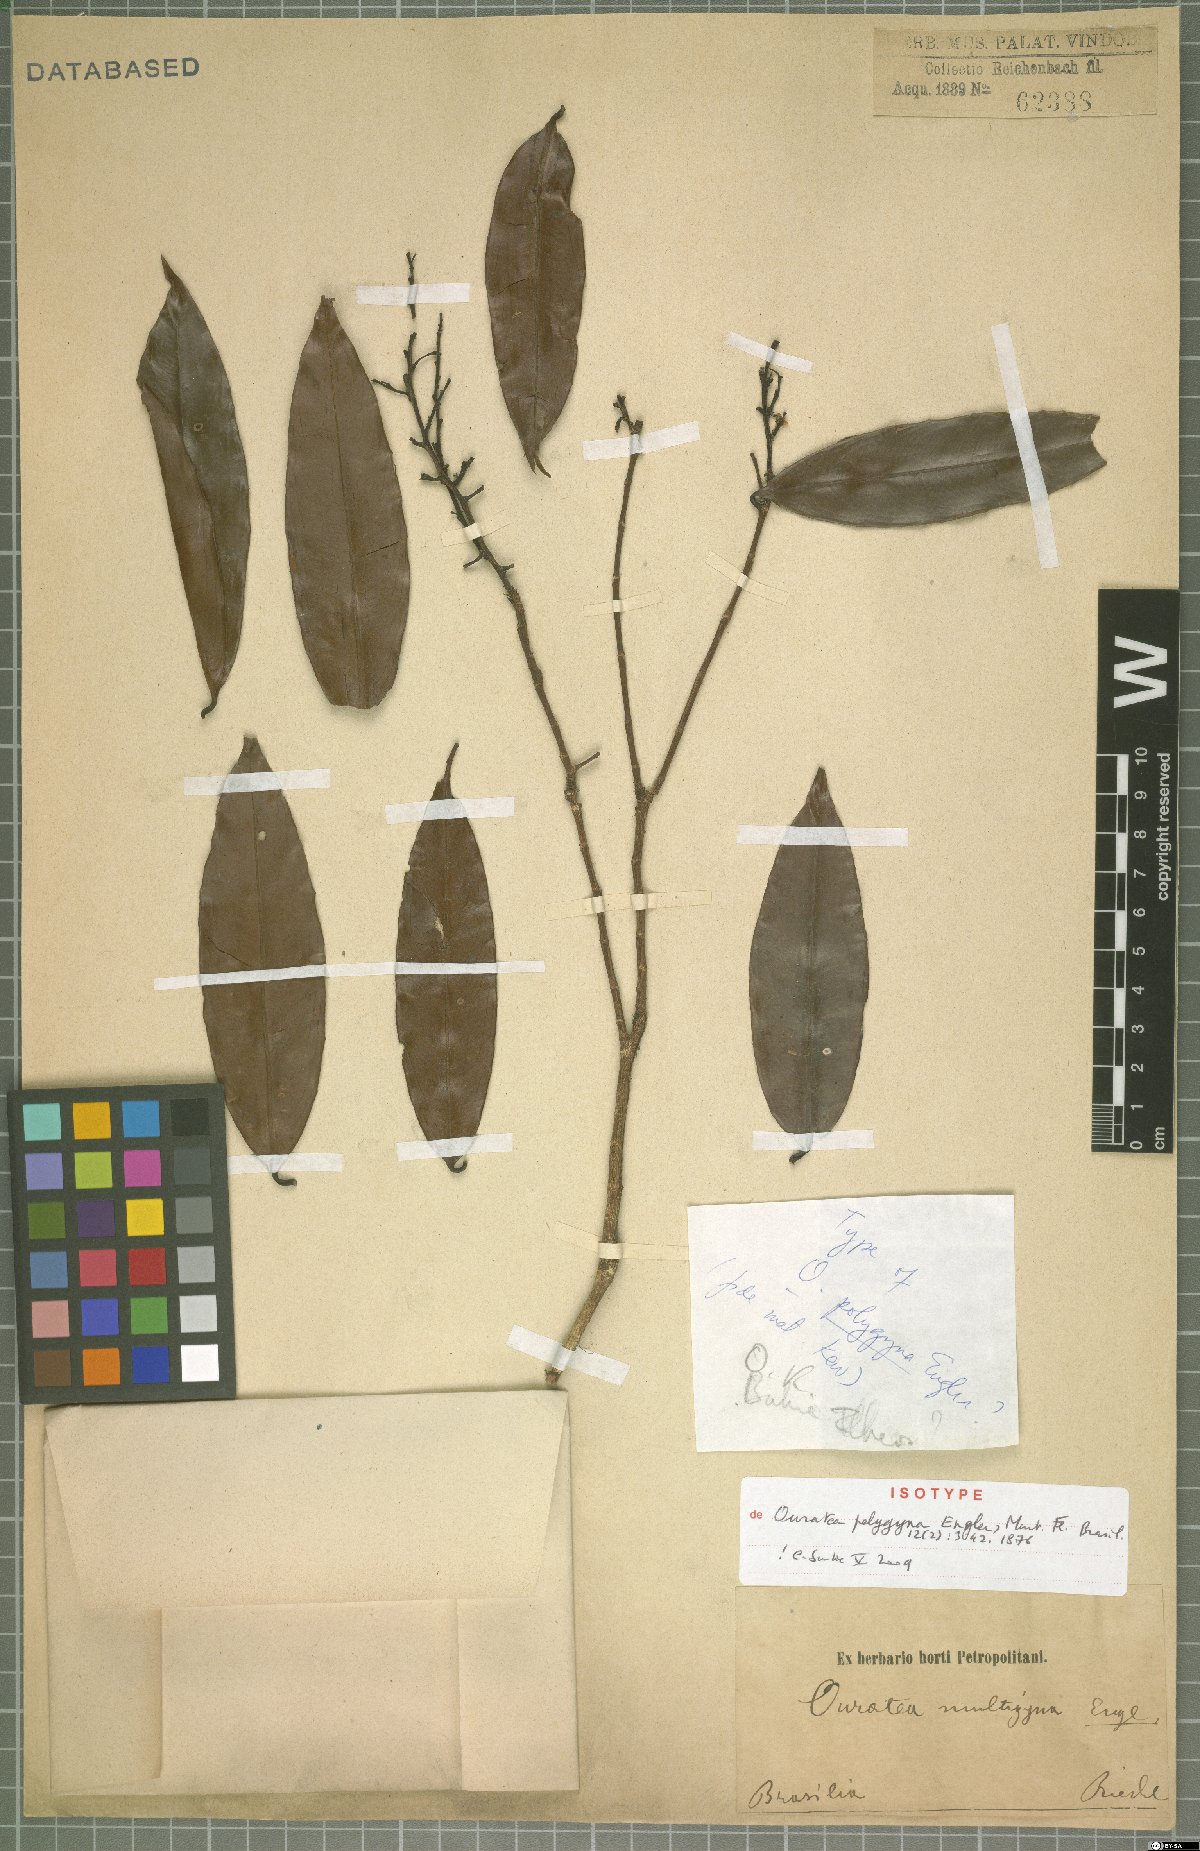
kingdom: Plantae
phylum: Tracheophyta
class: Magnoliopsida
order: Malpighiales
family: Ochnaceae
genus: Ouratea
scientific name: Ouratea polygyna
